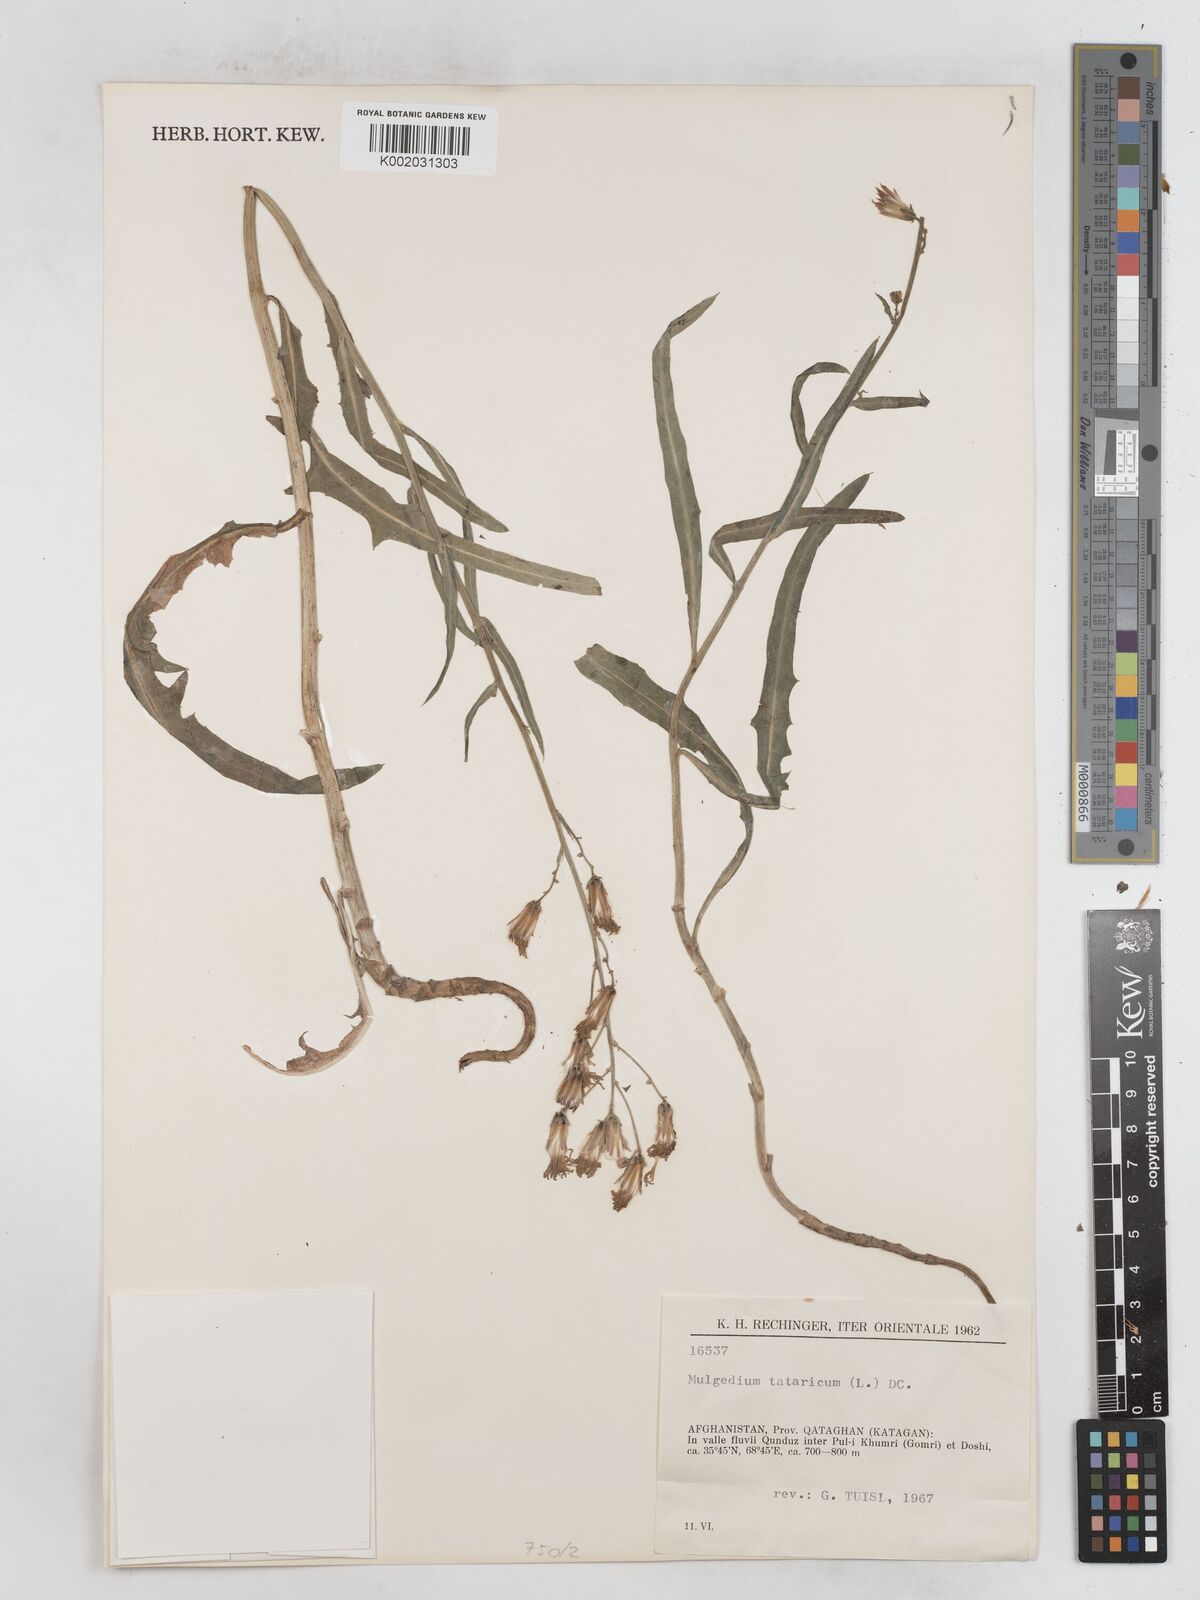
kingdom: Plantae
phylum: Tracheophyta
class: Magnoliopsida
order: Asterales
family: Asteraceae
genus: Lactuca
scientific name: Lactuca tatarica
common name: Blue lettuce
